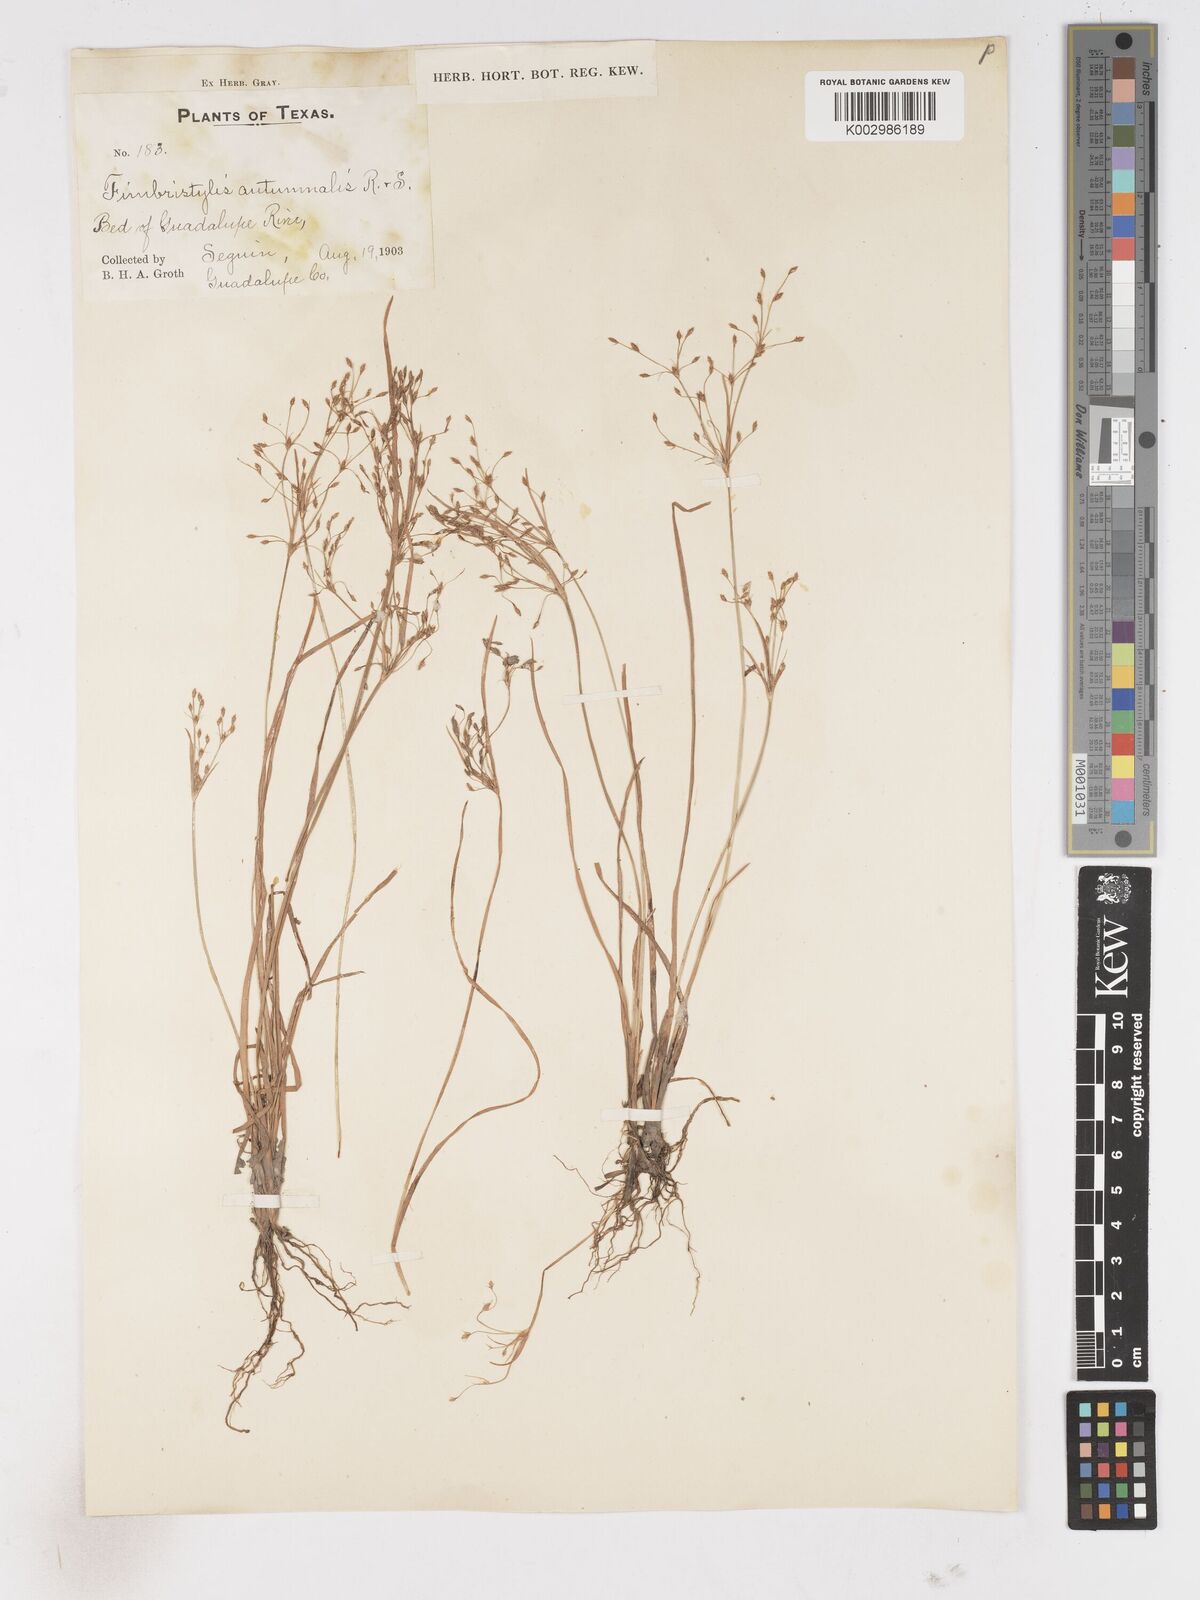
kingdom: Plantae
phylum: Tracheophyta
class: Liliopsida
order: Poales
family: Cyperaceae
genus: Fimbristylis
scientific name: Fimbristylis autumnalis
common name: Slender fimbristylis
